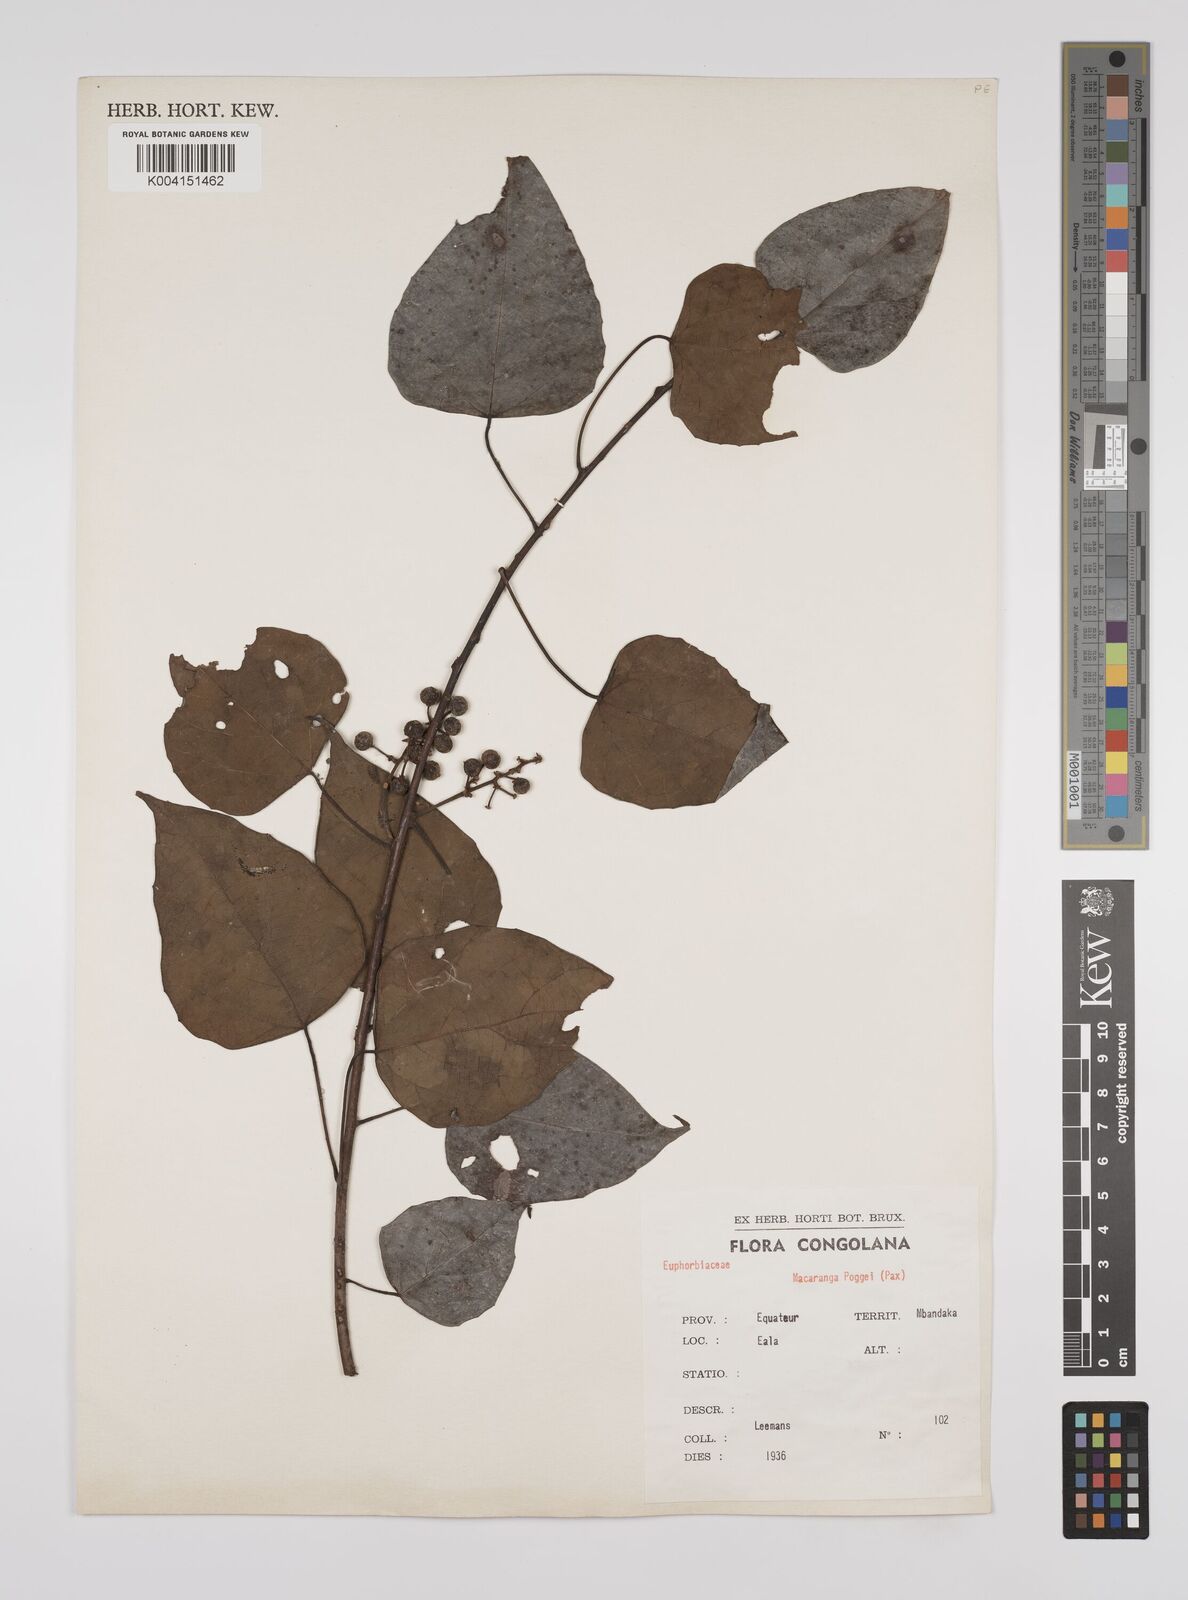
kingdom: Plantae
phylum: Tracheophyta
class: Magnoliopsida
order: Malpighiales
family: Euphorbiaceae
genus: Macaranga
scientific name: Macaranga poggei
